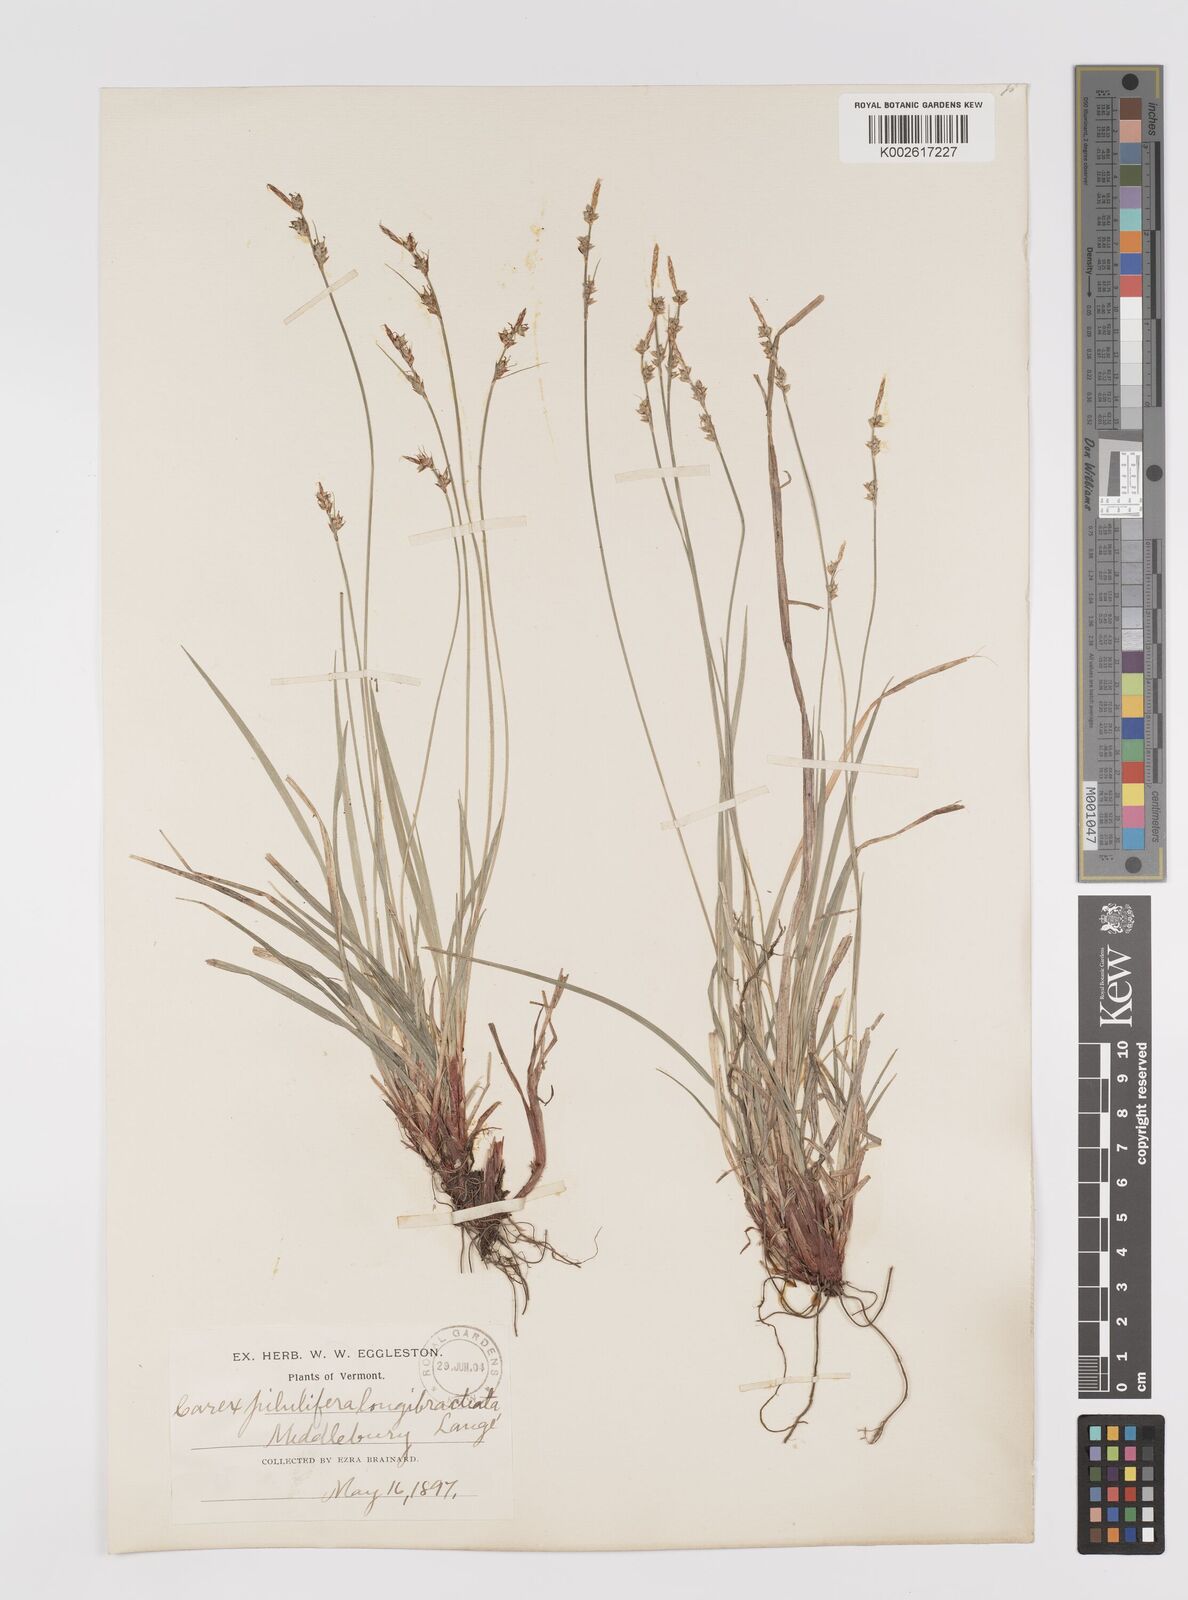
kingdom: Plantae
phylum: Tracheophyta
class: Liliopsida
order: Poales
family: Cyperaceae
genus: Carex
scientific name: Carex albicans
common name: Bellow-beaked sedge
